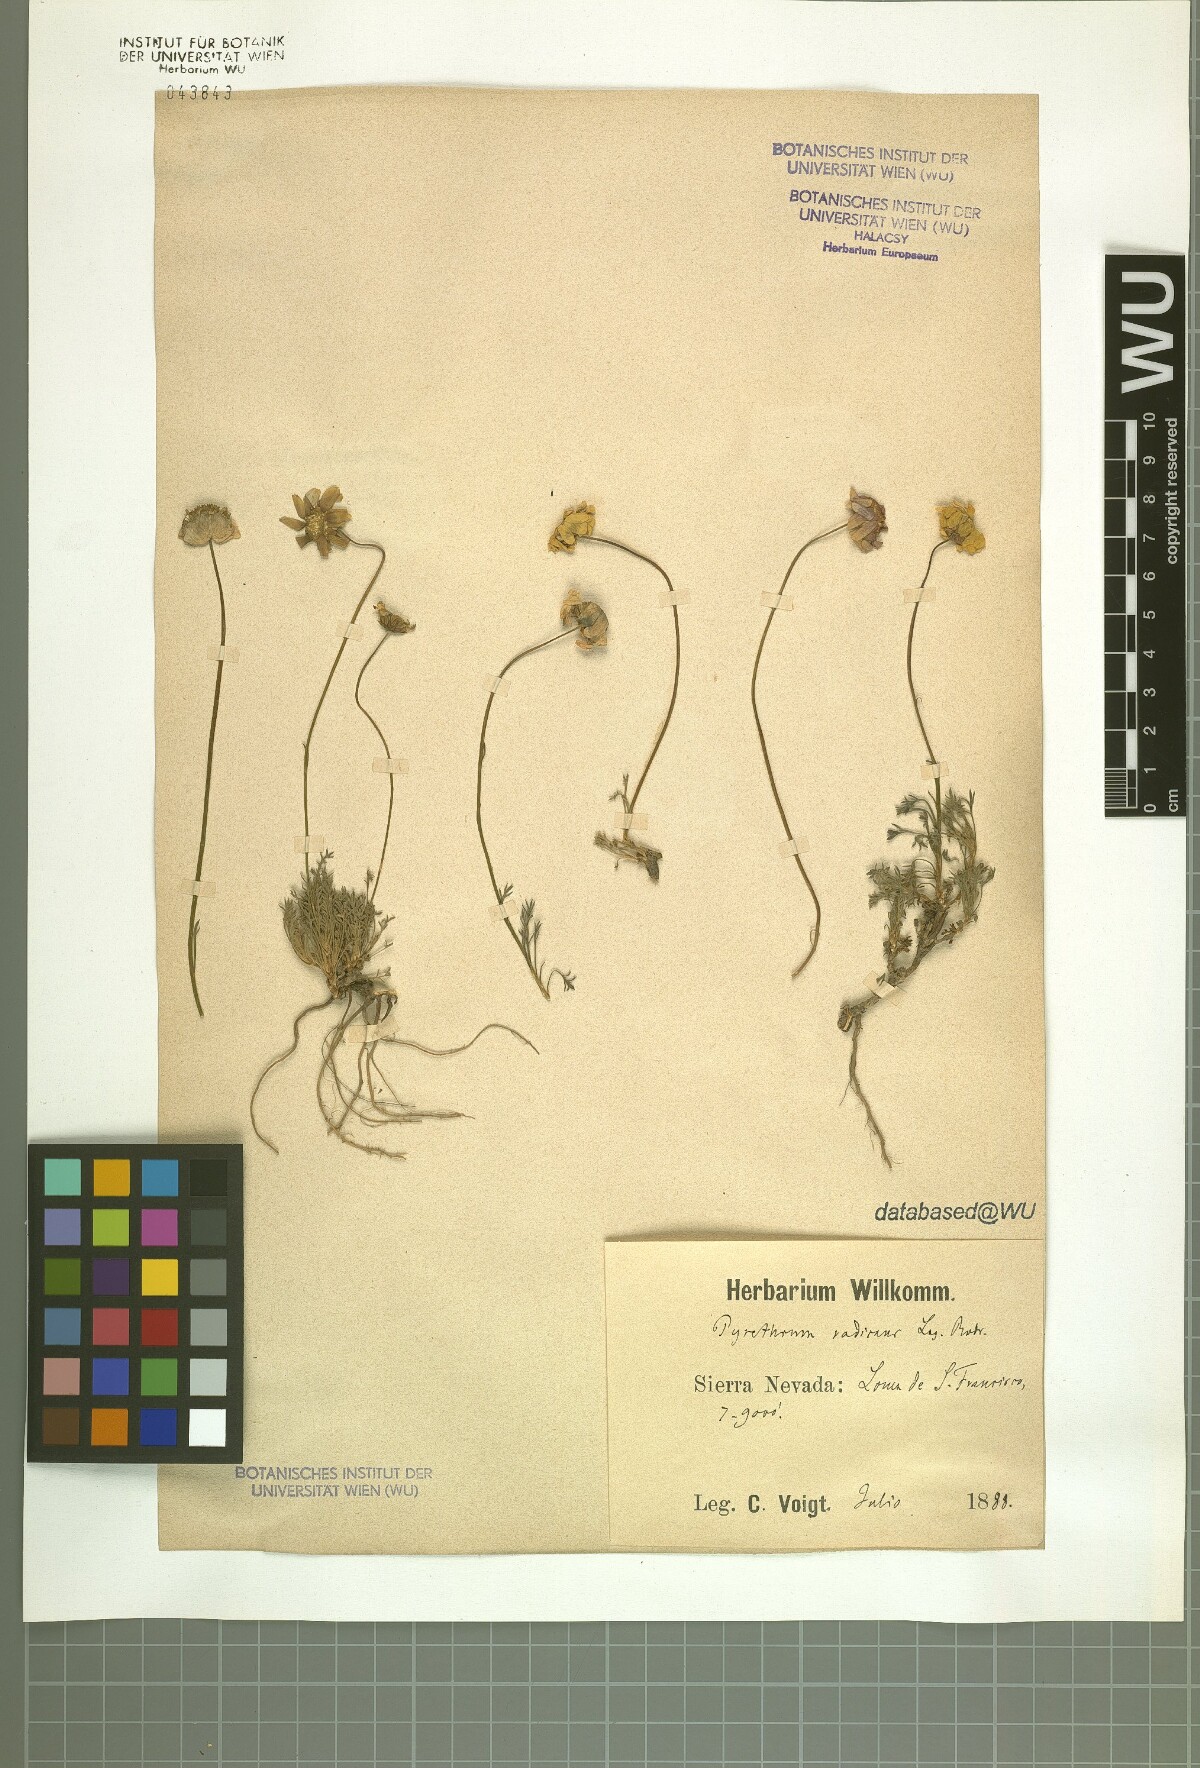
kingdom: Plantae
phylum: Tracheophyta
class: Magnoliopsida
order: Asterales
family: Asteraceae
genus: Leucanthemopsis
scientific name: Leucanthemopsis pectinata
